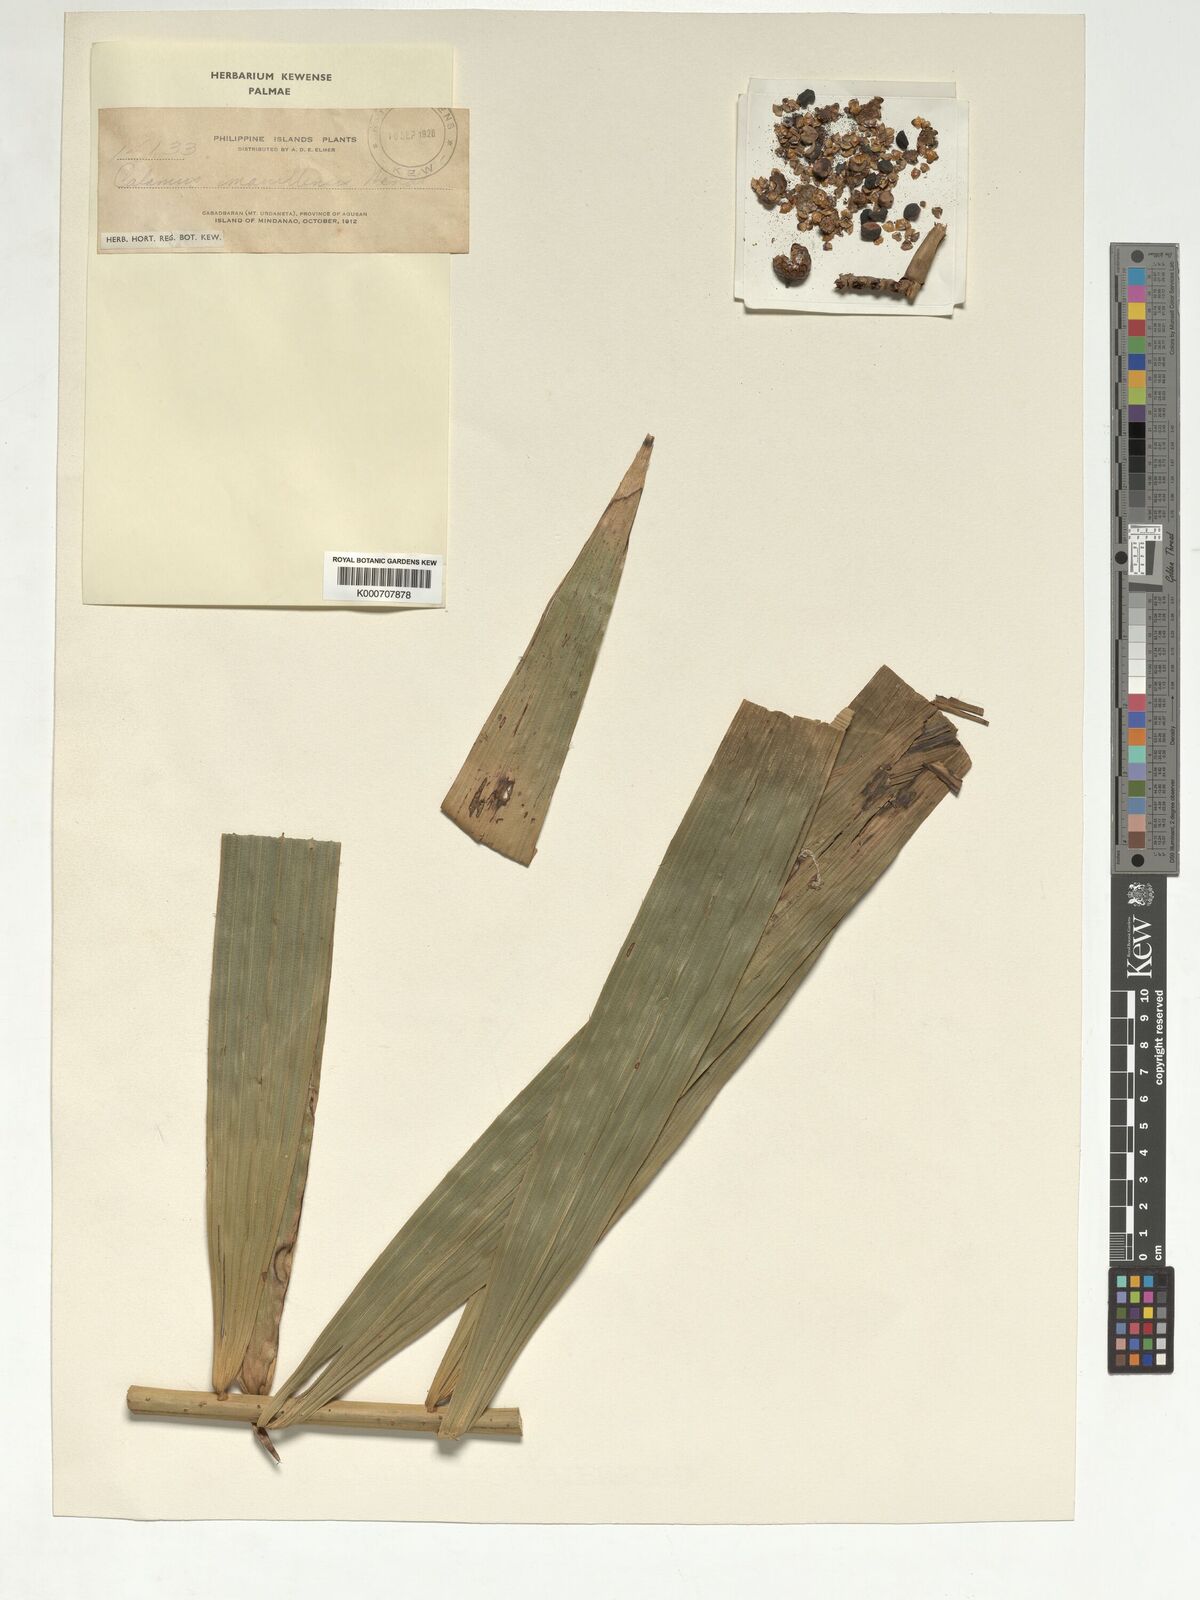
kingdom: Plantae
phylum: Tracheophyta
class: Liliopsida
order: Arecales
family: Arecaceae
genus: Calamus
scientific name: Calamus manillensis
